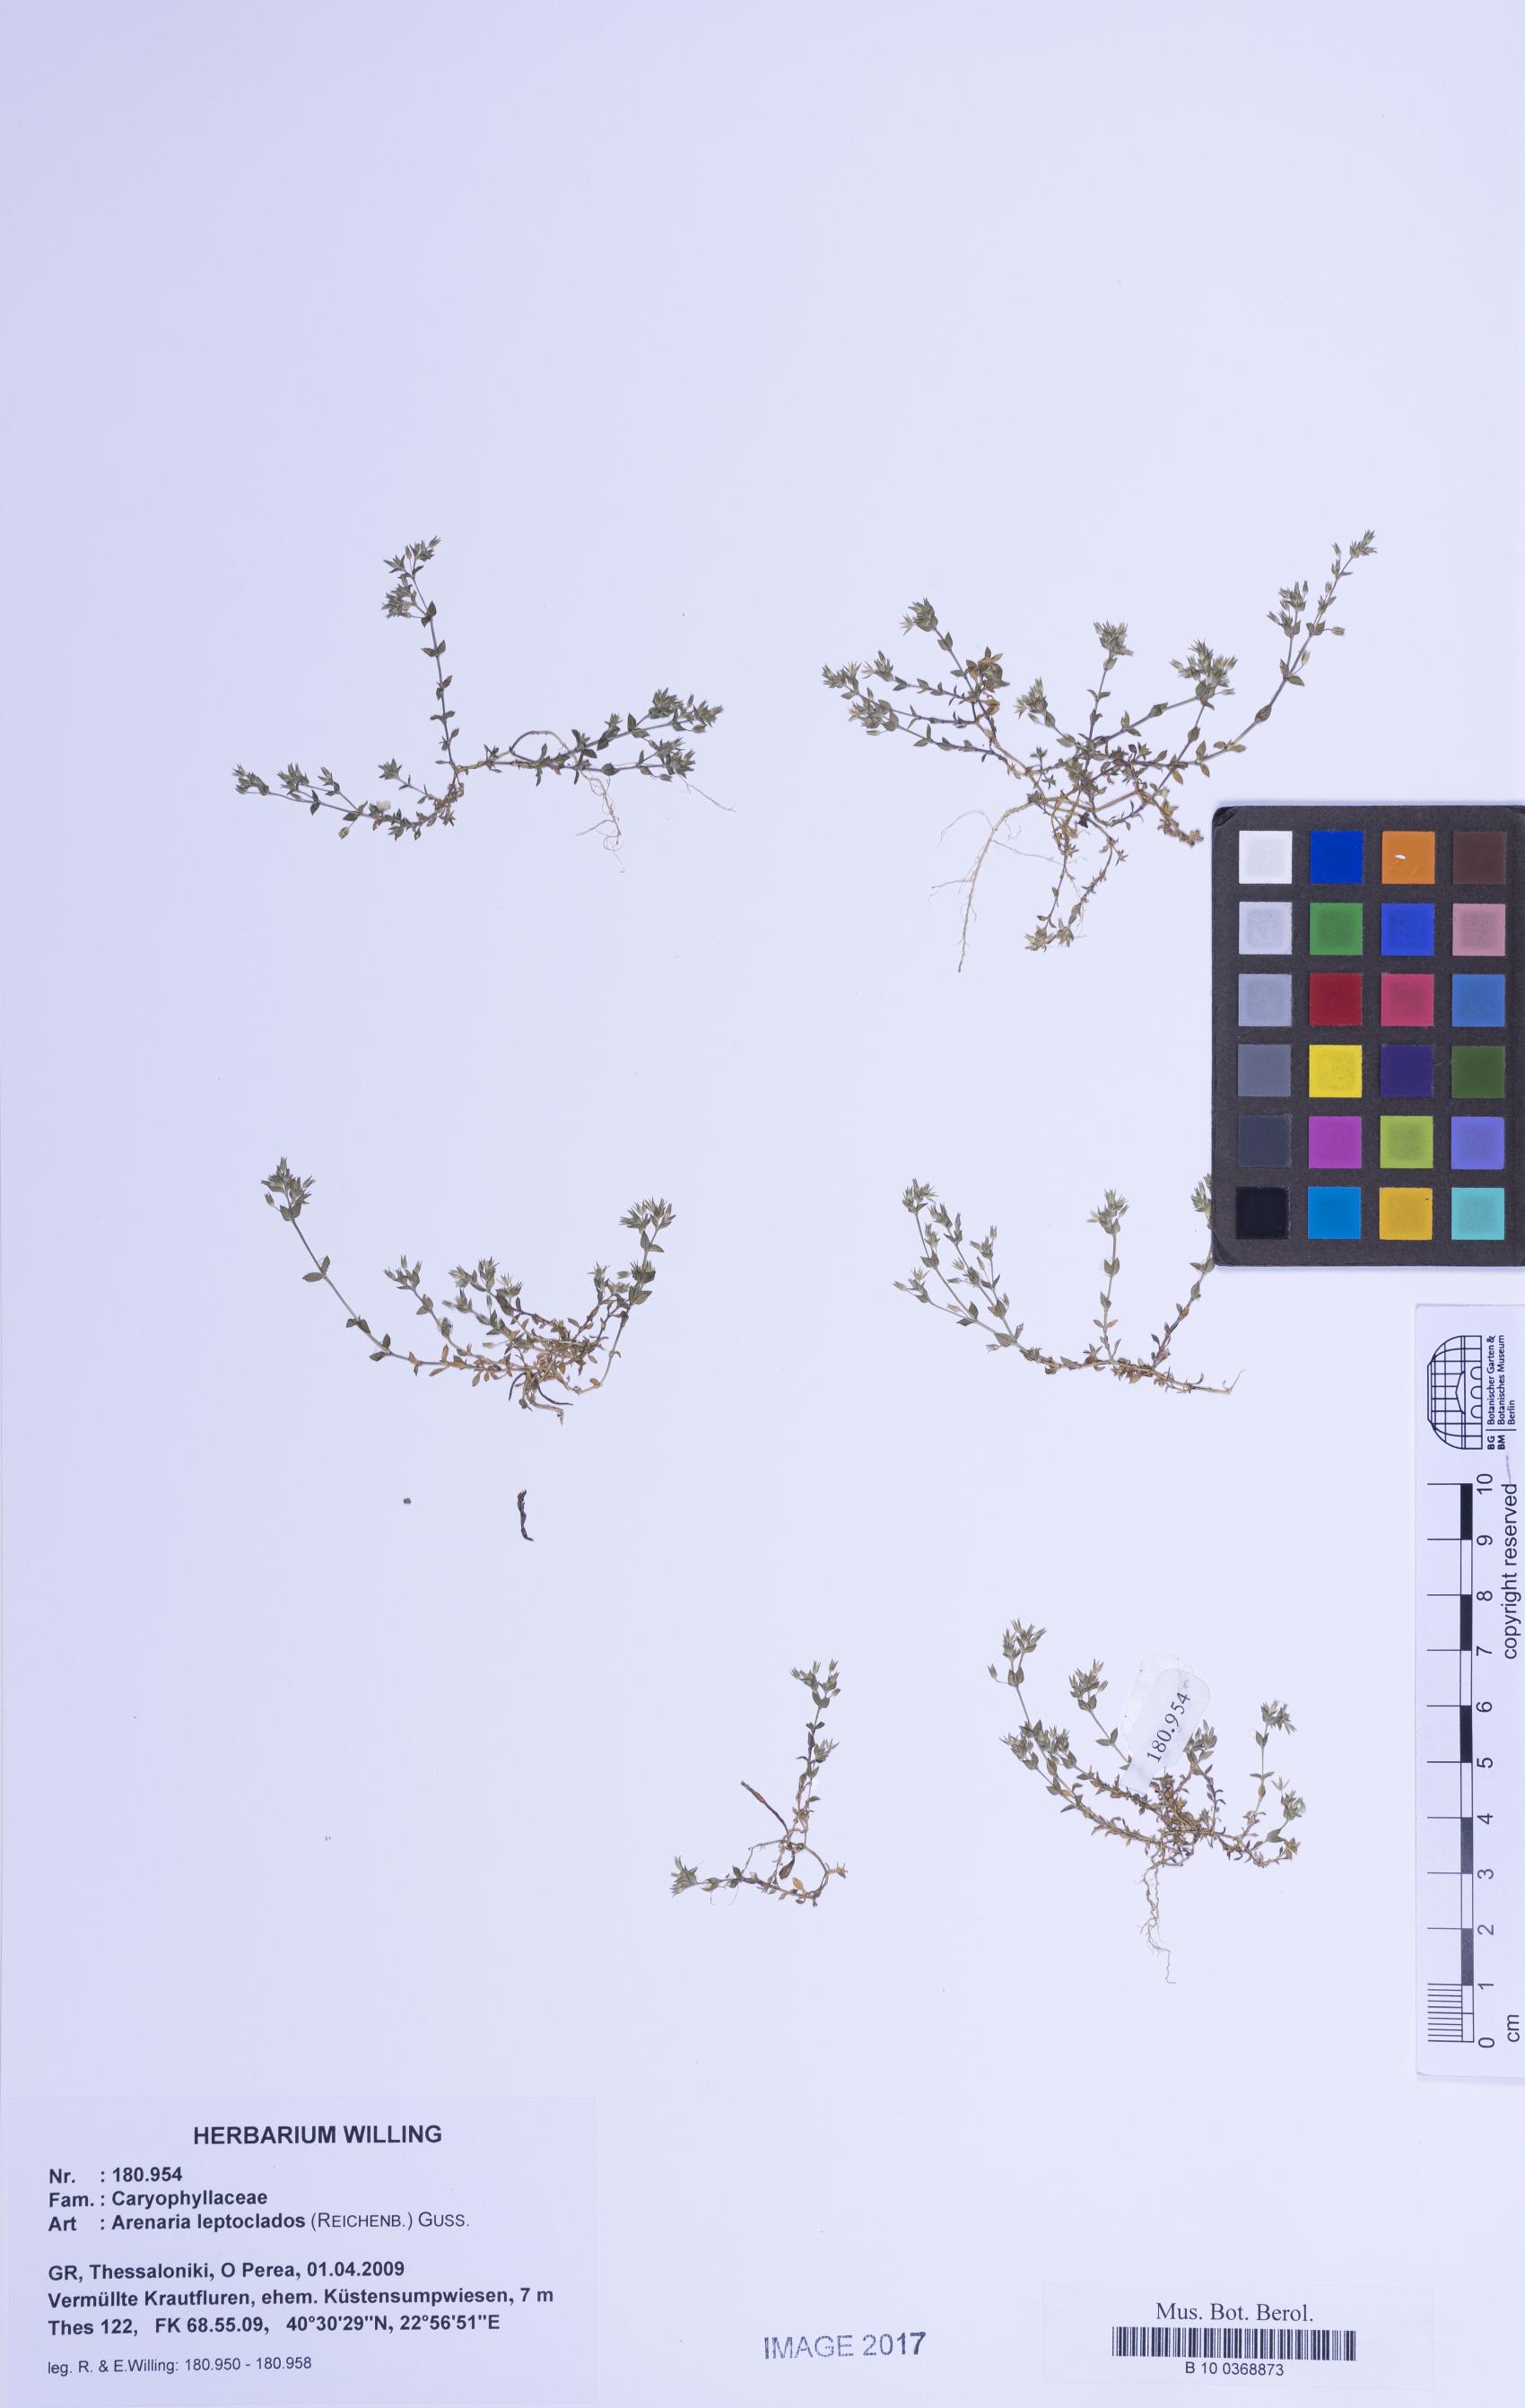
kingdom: Plantae
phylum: Tracheophyta
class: Magnoliopsida
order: Caryophyllales
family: Caryophyllaceae
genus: Arenaria
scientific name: Arenaria leptoclados
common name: Thyme-leaved sandwort
